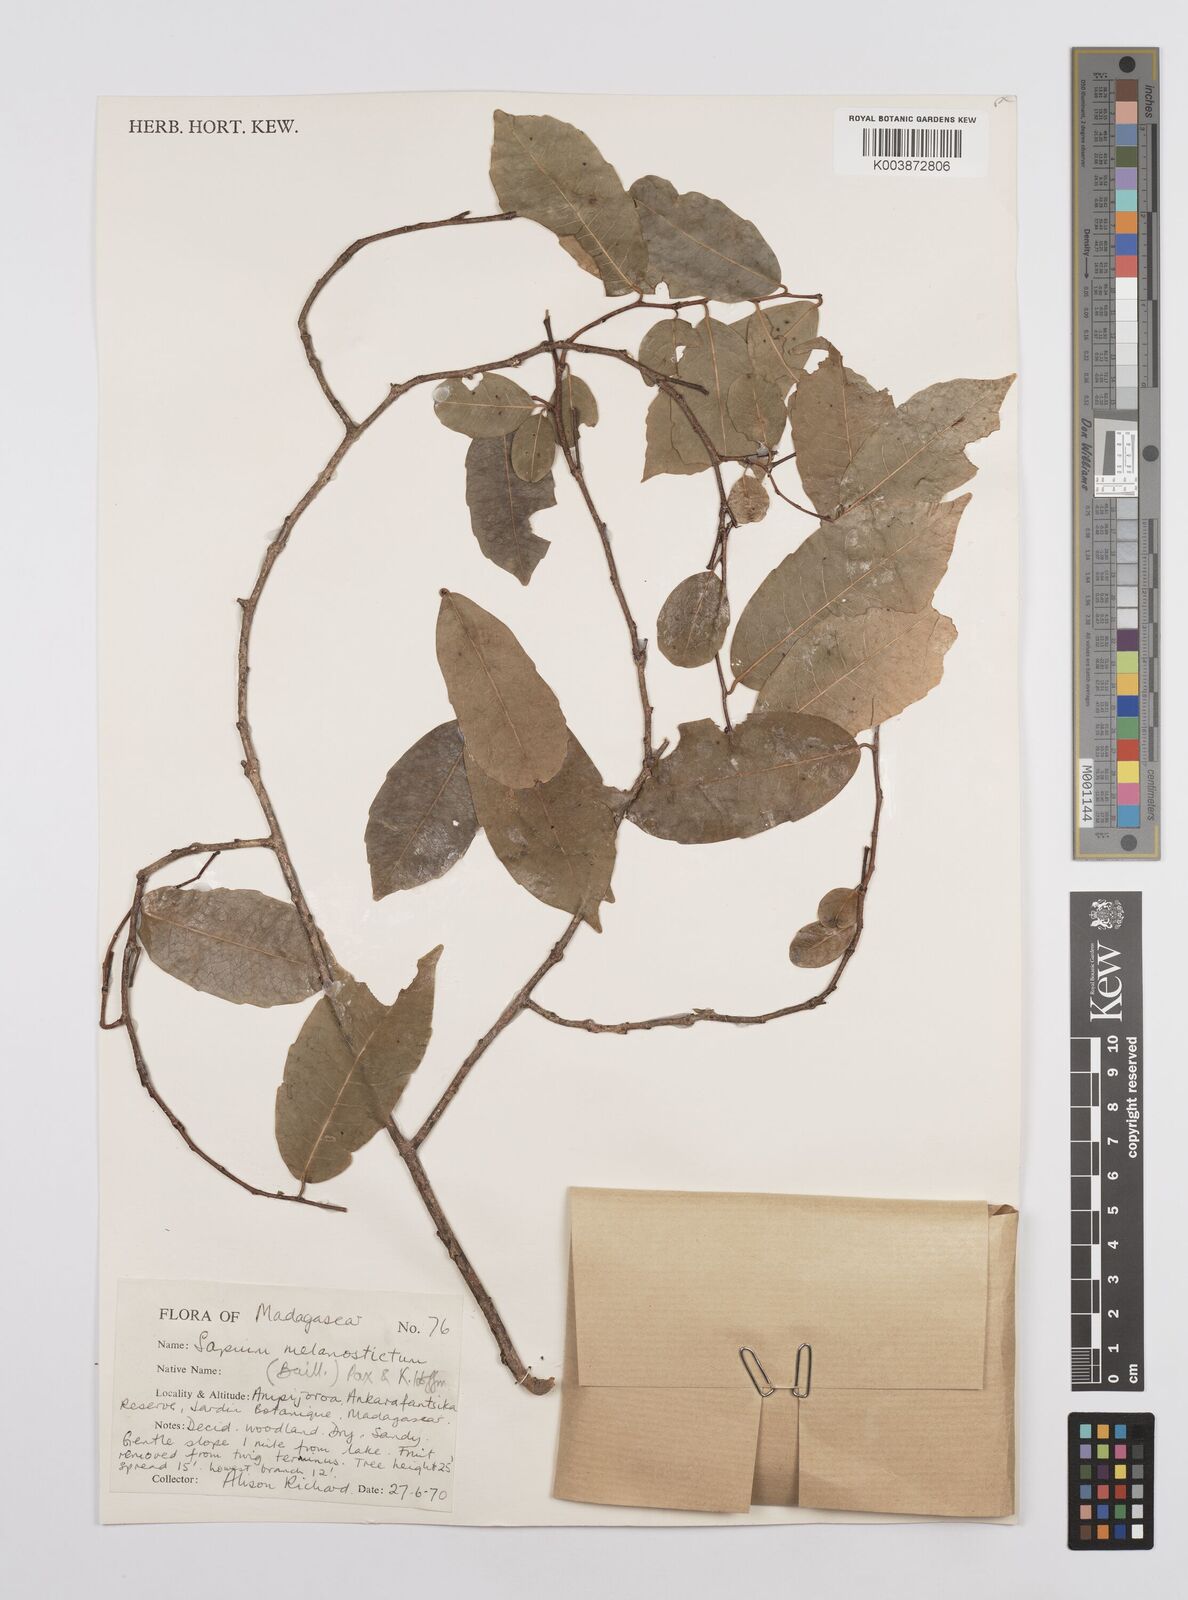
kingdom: Plantae
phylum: Tracheophyta
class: Magnoliopsida
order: Malpighiales
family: Euphorbiaceae
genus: Sclerocroton
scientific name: Sclerocroton melanostictus
